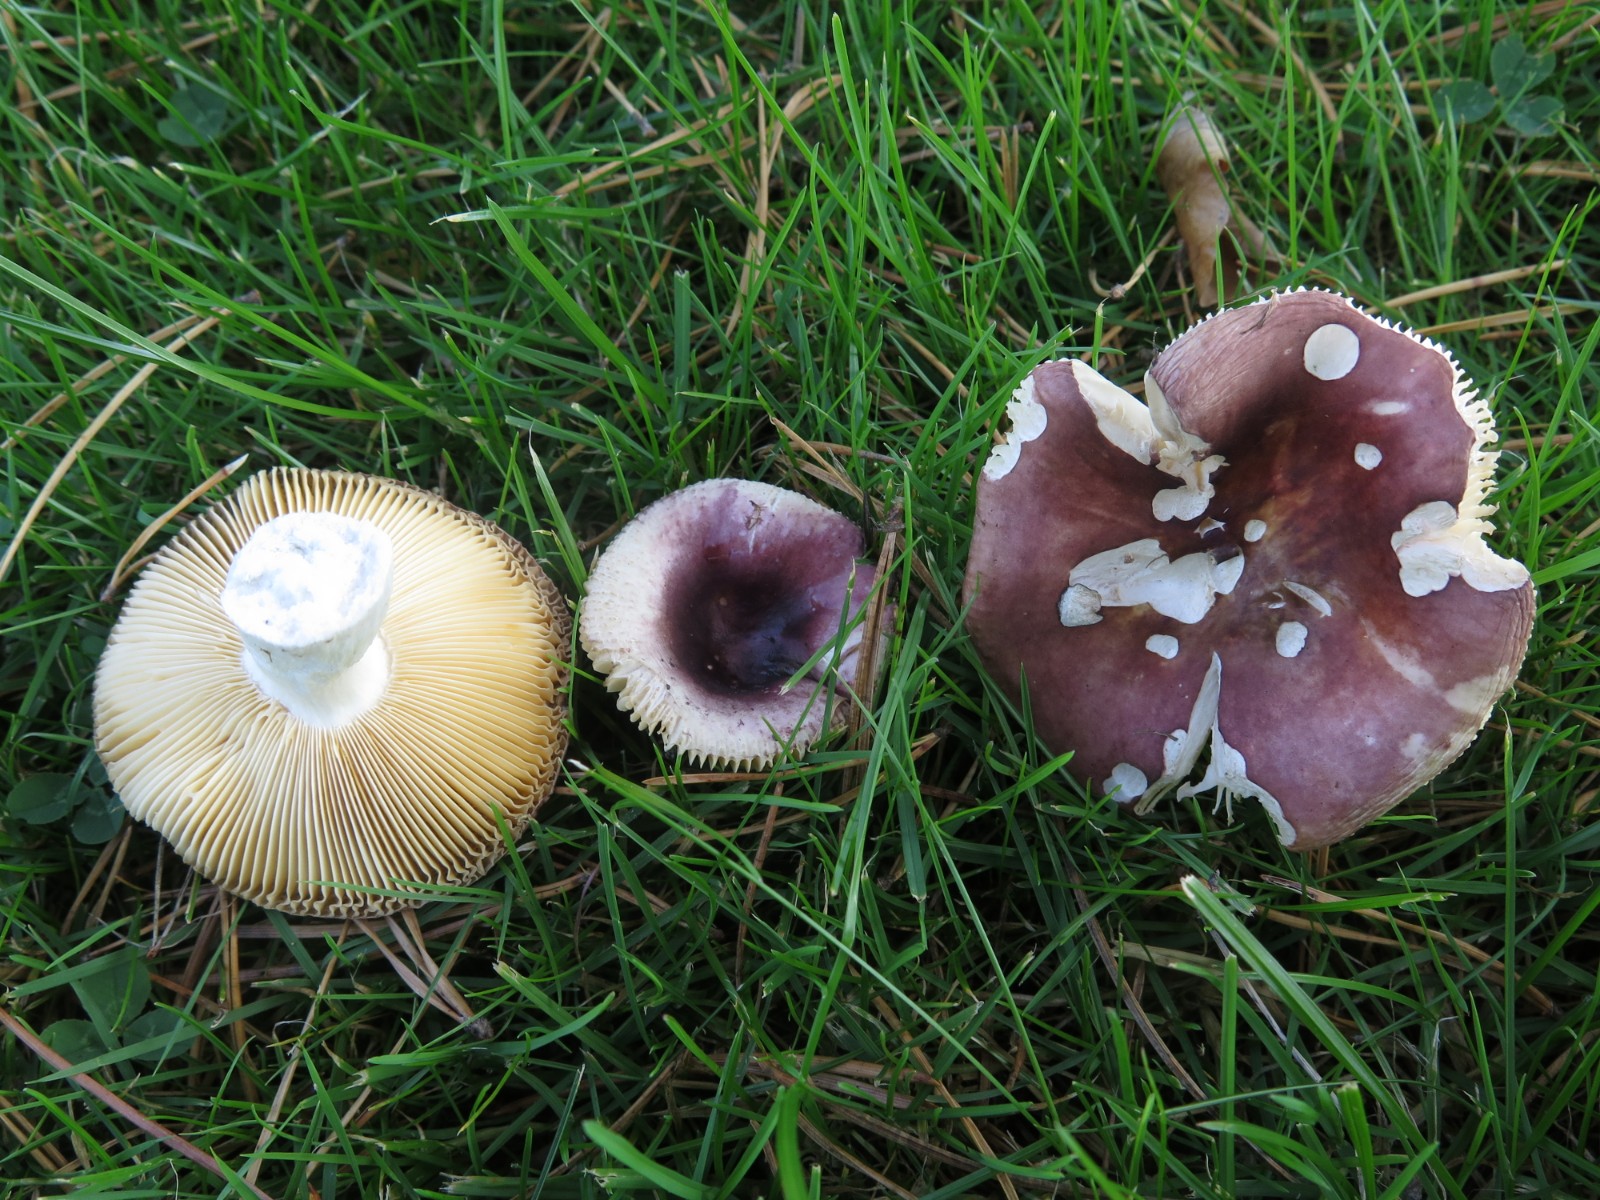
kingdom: Fungi
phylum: Basidiomycota
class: Agaricomycetes
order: Russulales
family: Russulaceae
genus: Russula
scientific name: Russula cessans
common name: fyrre-skørhat
